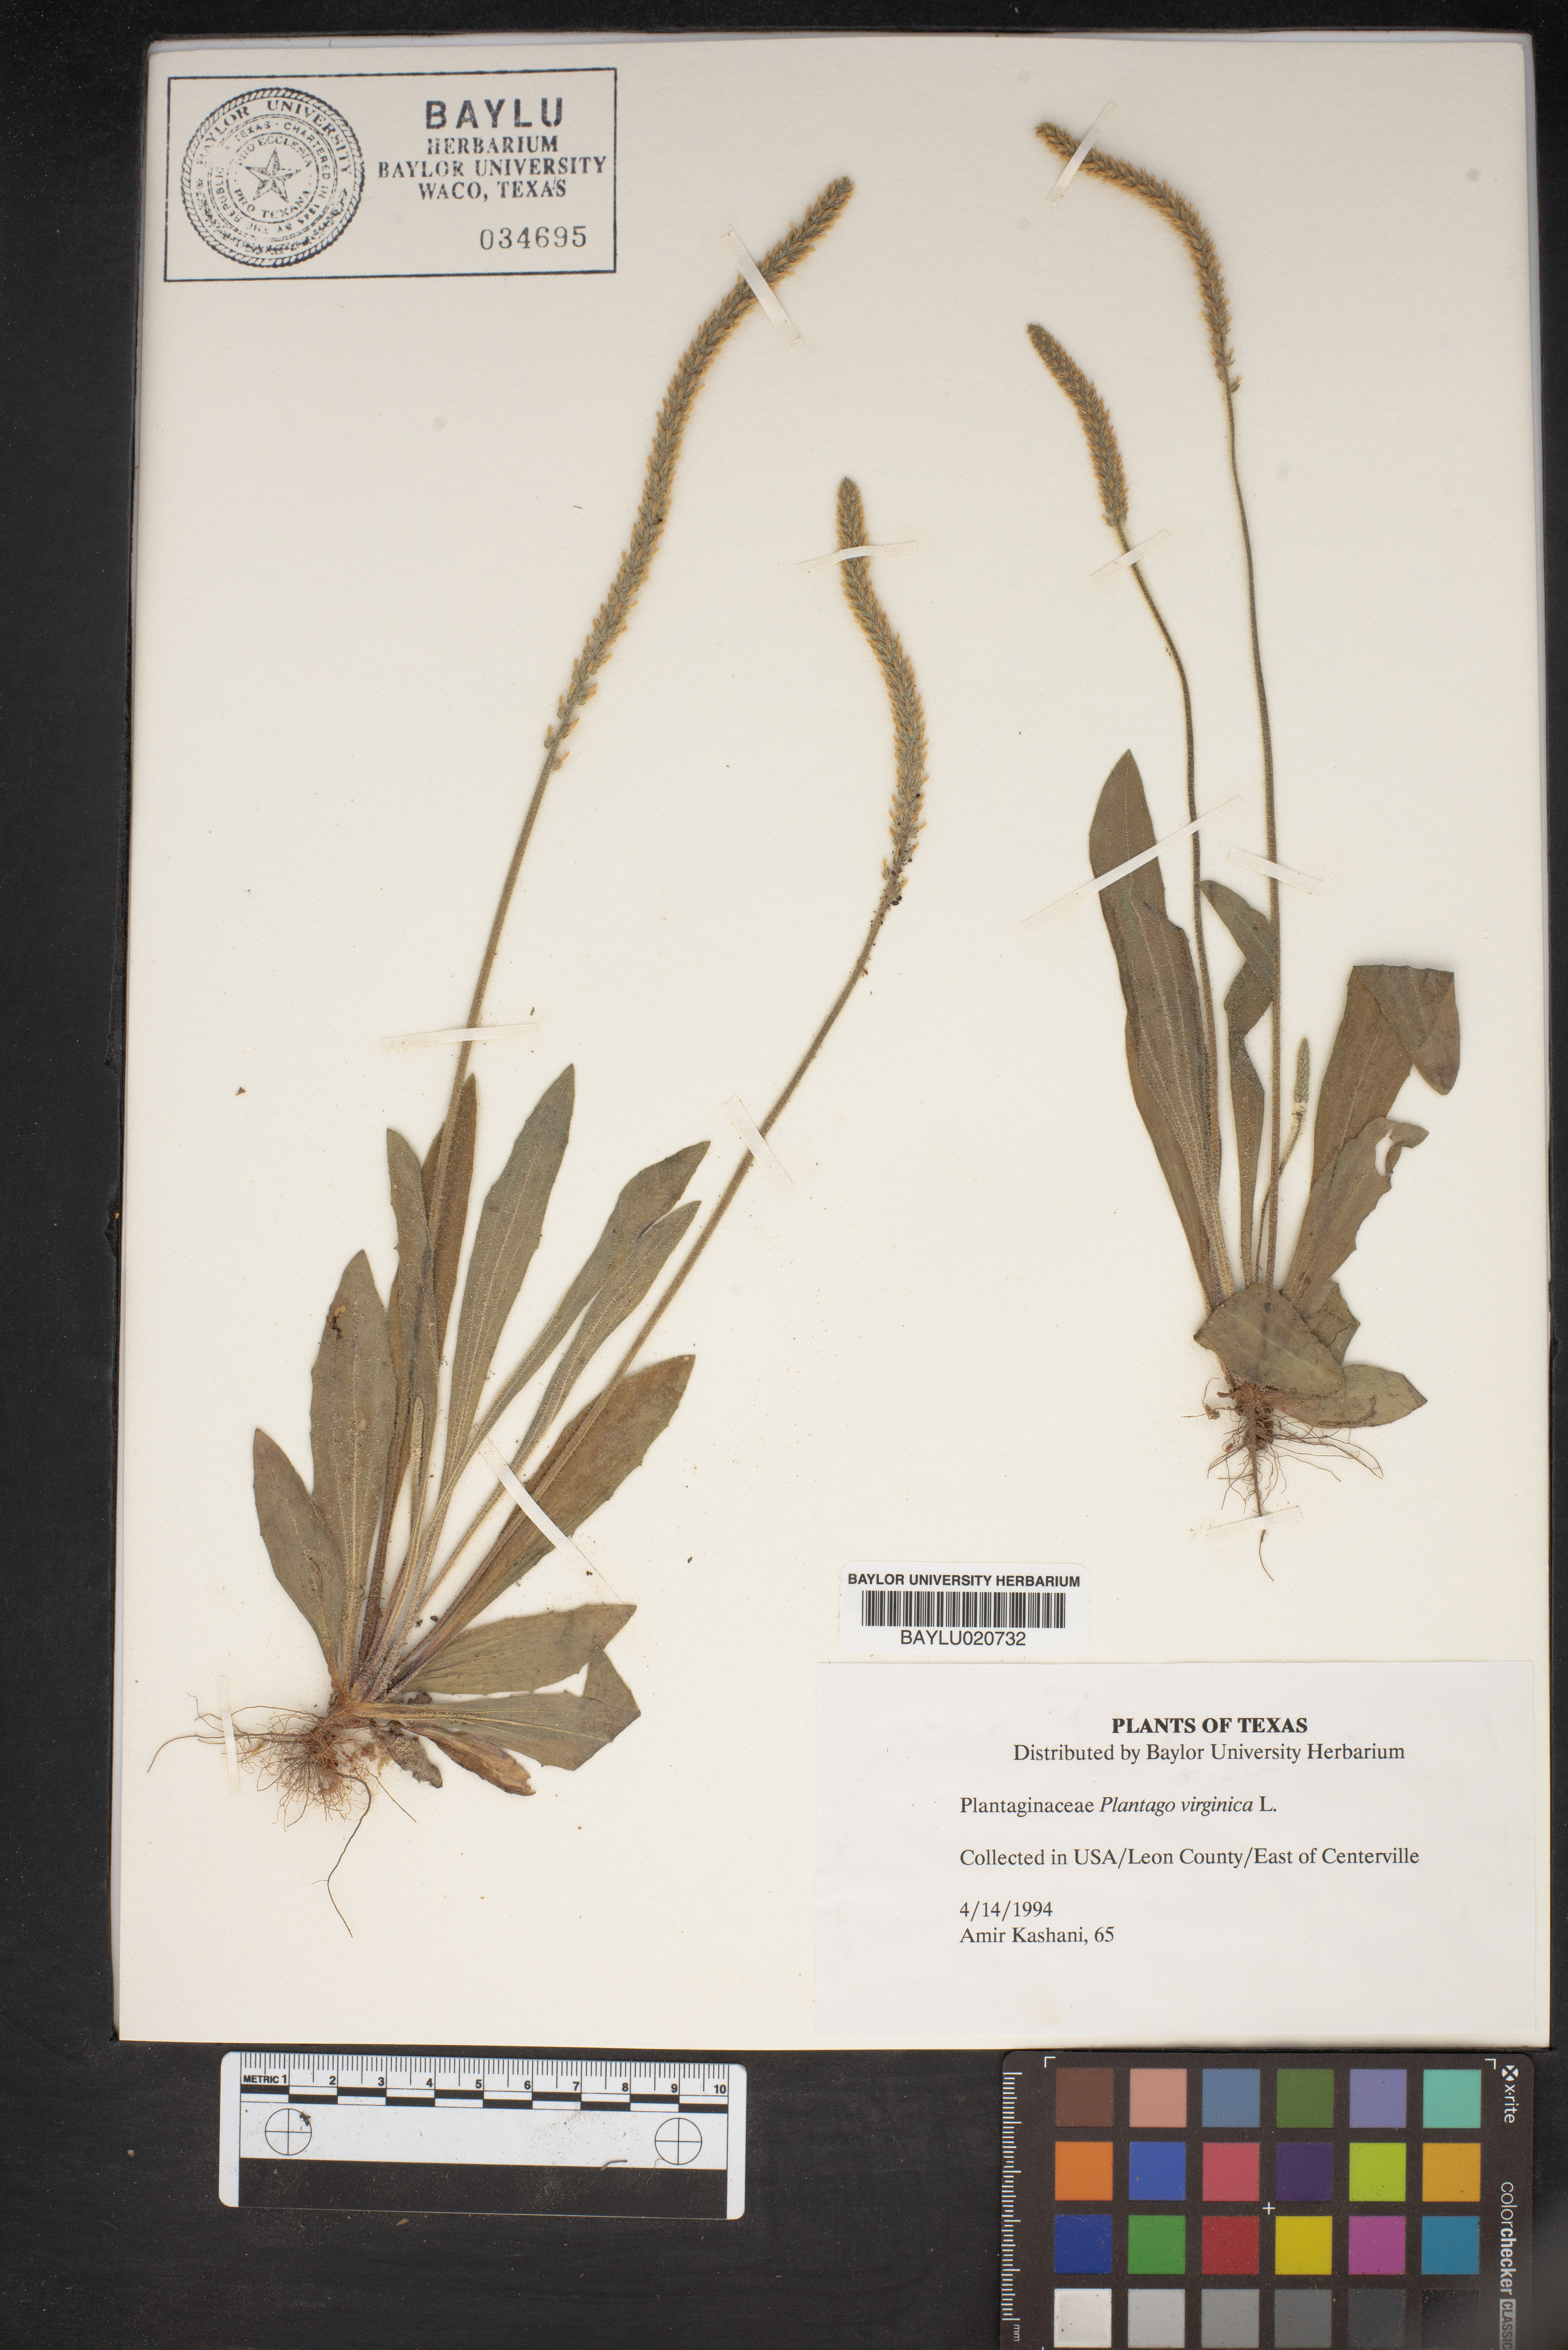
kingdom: Plantae
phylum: Tracheophyta
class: Magnoliopsida
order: Lamiales
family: Plantaginaceae
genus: Plantago
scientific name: Plantago virginica
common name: Hoary plantain
